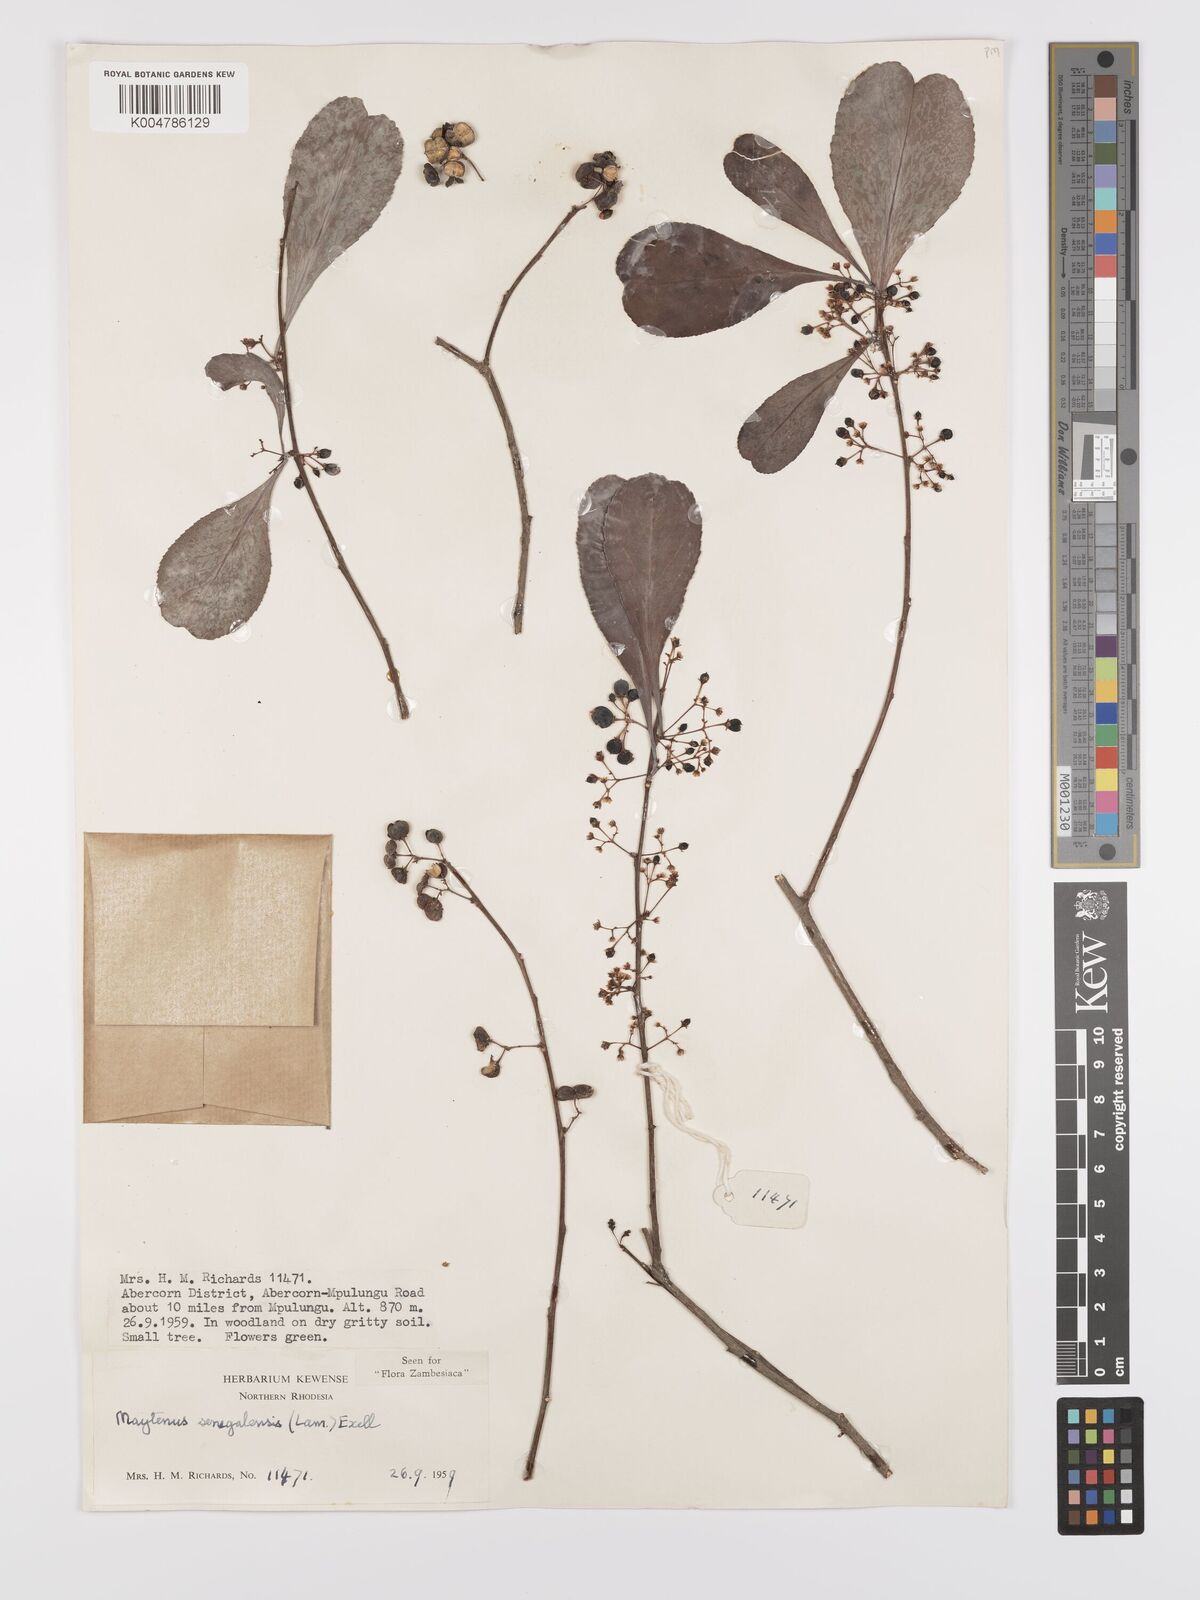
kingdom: Plantae
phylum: Tracheophyta
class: Magnoliopsida
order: Celastrales
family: Celastraceae
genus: Gymnosporia
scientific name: Gymnosporia senegalensis
